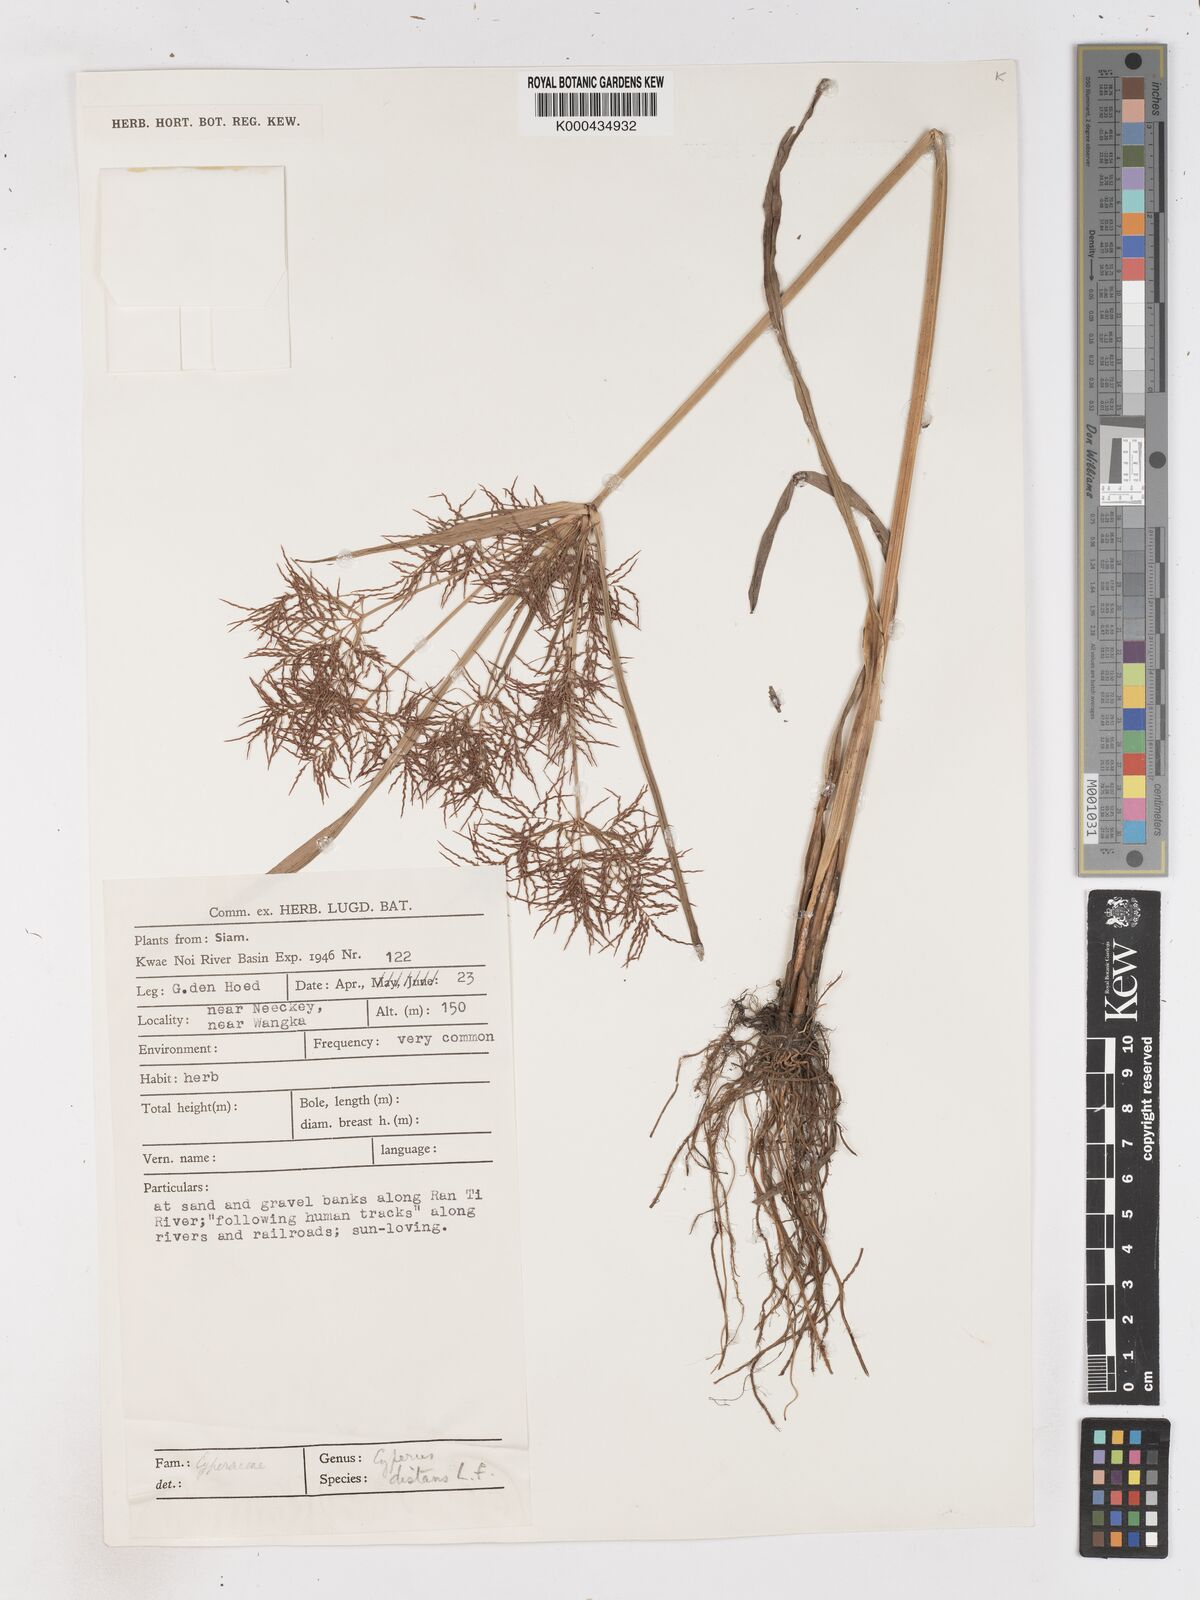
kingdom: Plantae
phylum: Tracheophyta
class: Liliopsida
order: Poales
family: Cyperaceae
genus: Cyperus
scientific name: Cyperus distans
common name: Slender cyperus
